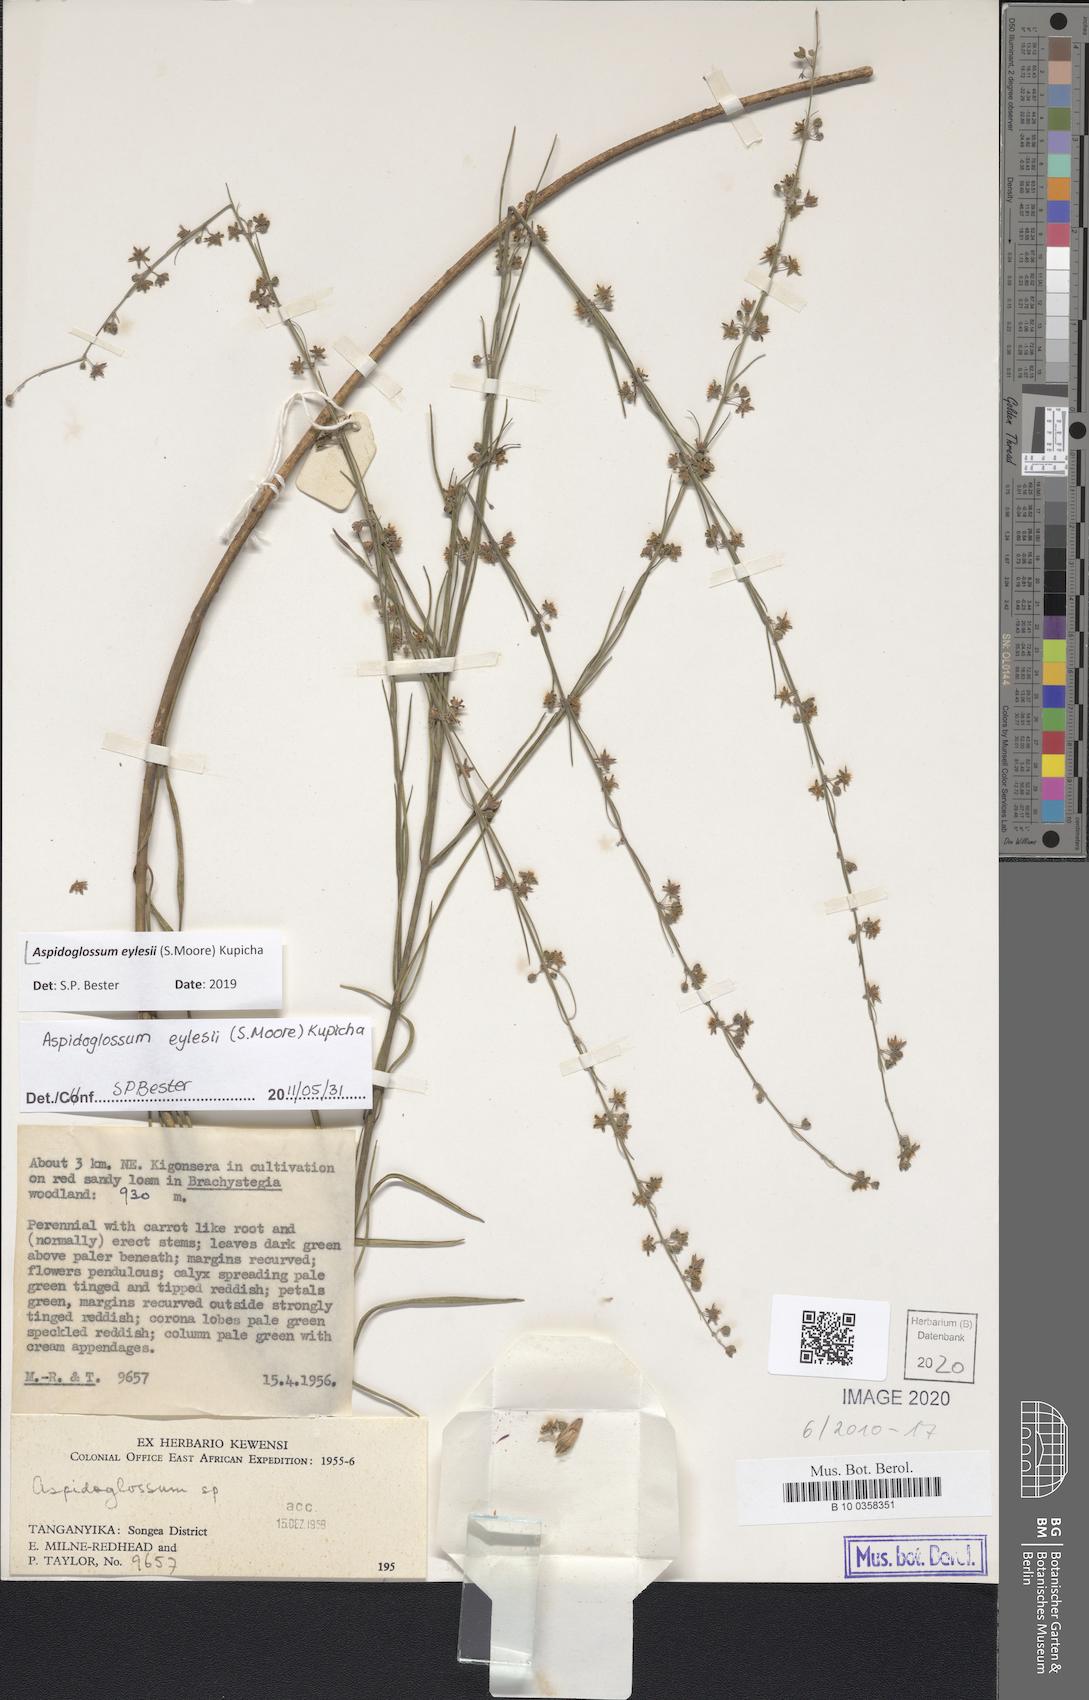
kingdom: Plantae
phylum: Tracheophyta
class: Magnoliopsida
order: Gentianales
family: Apocynaceae
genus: Aspidoglossum
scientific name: Aspidoglossum eylesii
